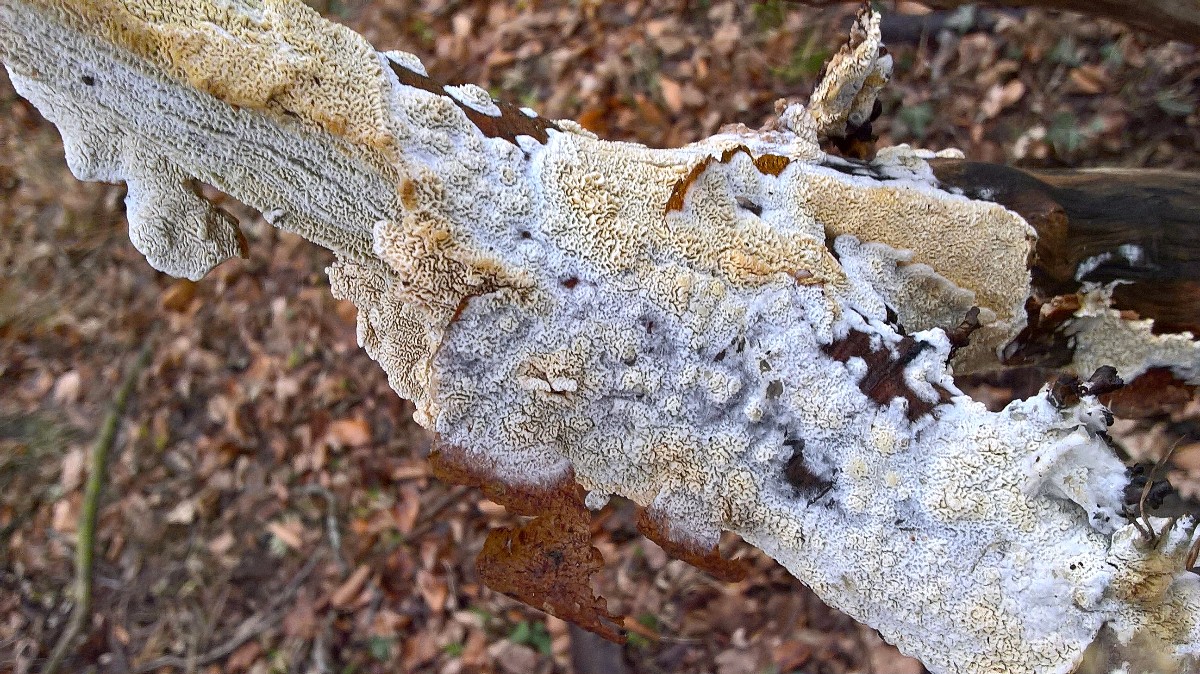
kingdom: Fungi
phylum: Basidiomycota
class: Agaricomycetes
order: Hymenochaetales
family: Schizoporaceae
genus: Xylodon
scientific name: Xylodon subtropicus
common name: labyrint-tandsvamp
